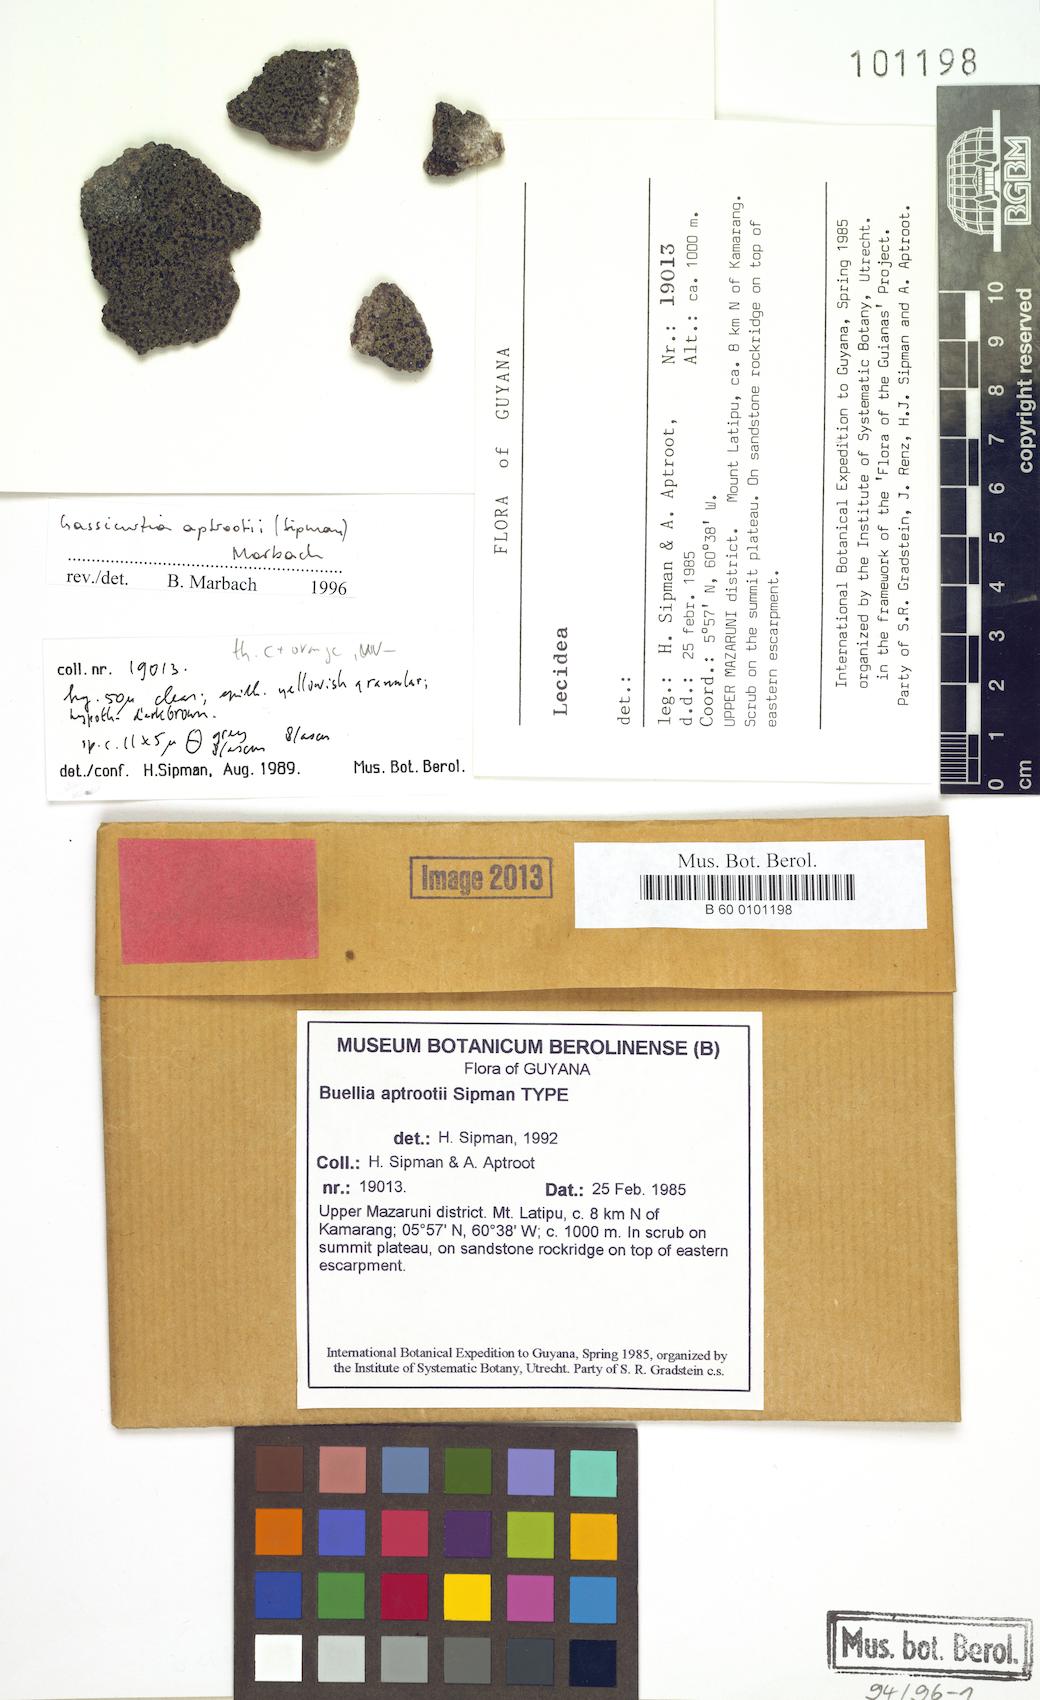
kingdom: Fungi
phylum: Ascomycota
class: Lecanoromycetes
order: Caliciales
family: Caliciaceae
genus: Buellia
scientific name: Buellia aptrootii
